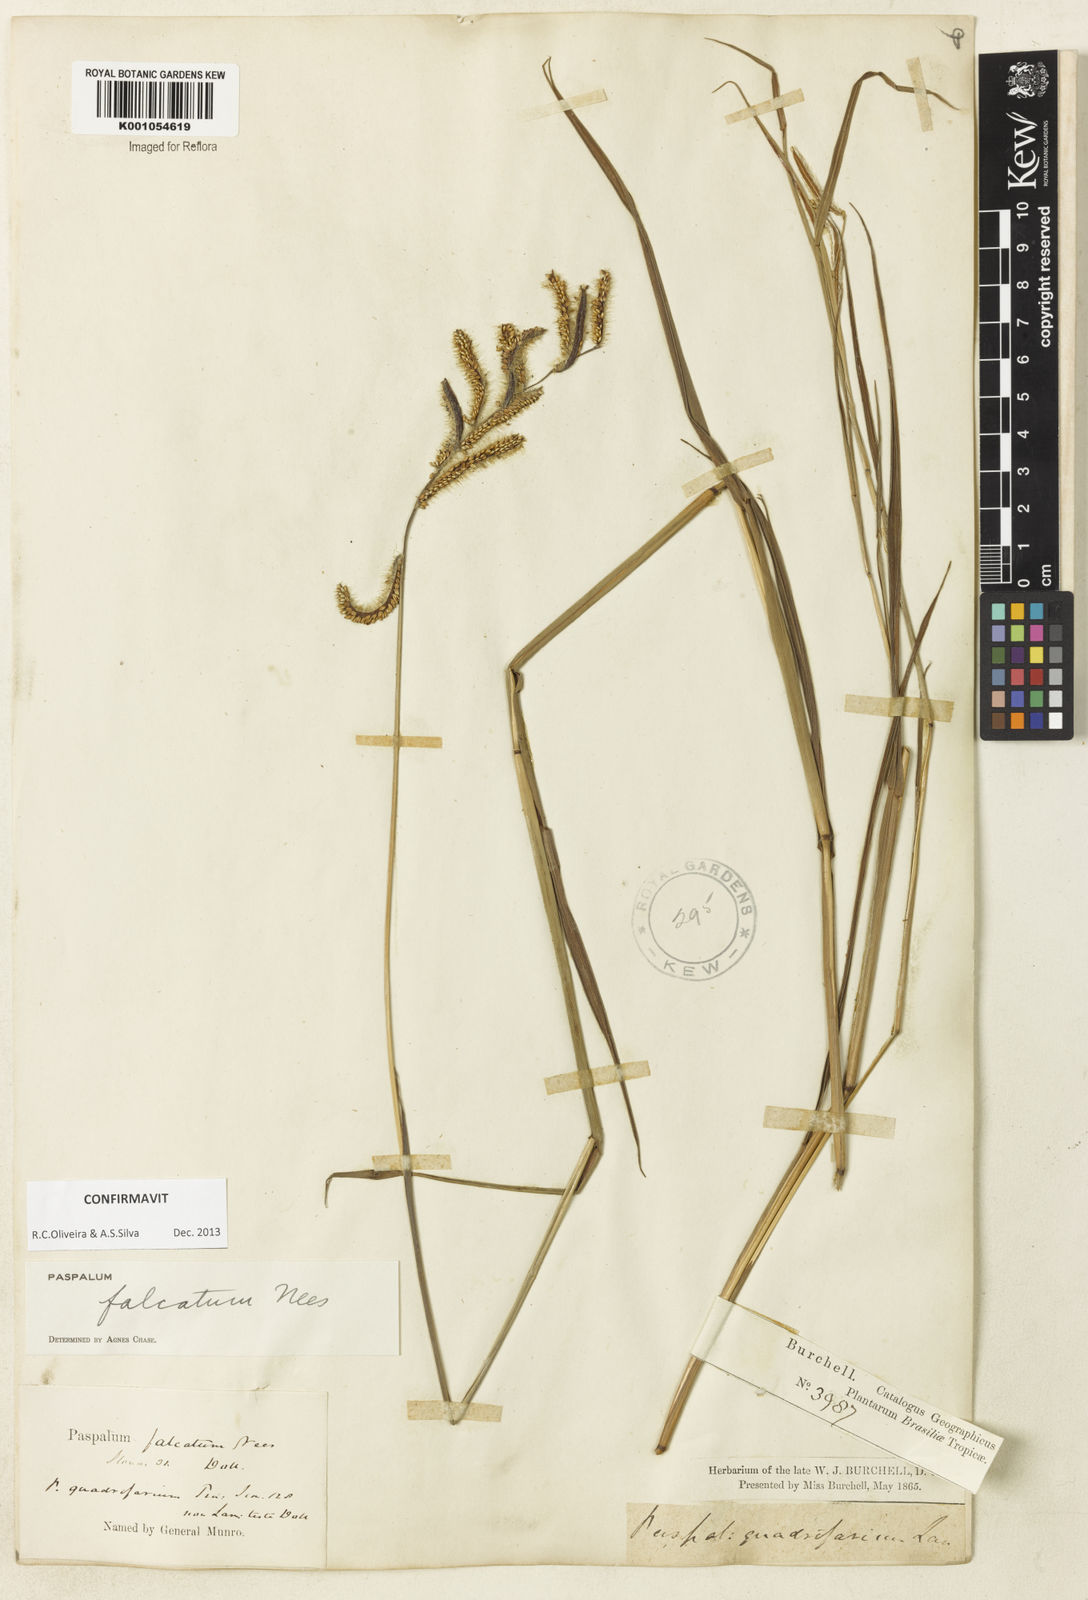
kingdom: Plantae
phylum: Tracheophyta
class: Liliopsida
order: Poales
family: Poaceae
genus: Paspalum
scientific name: Paspalum falcatum
